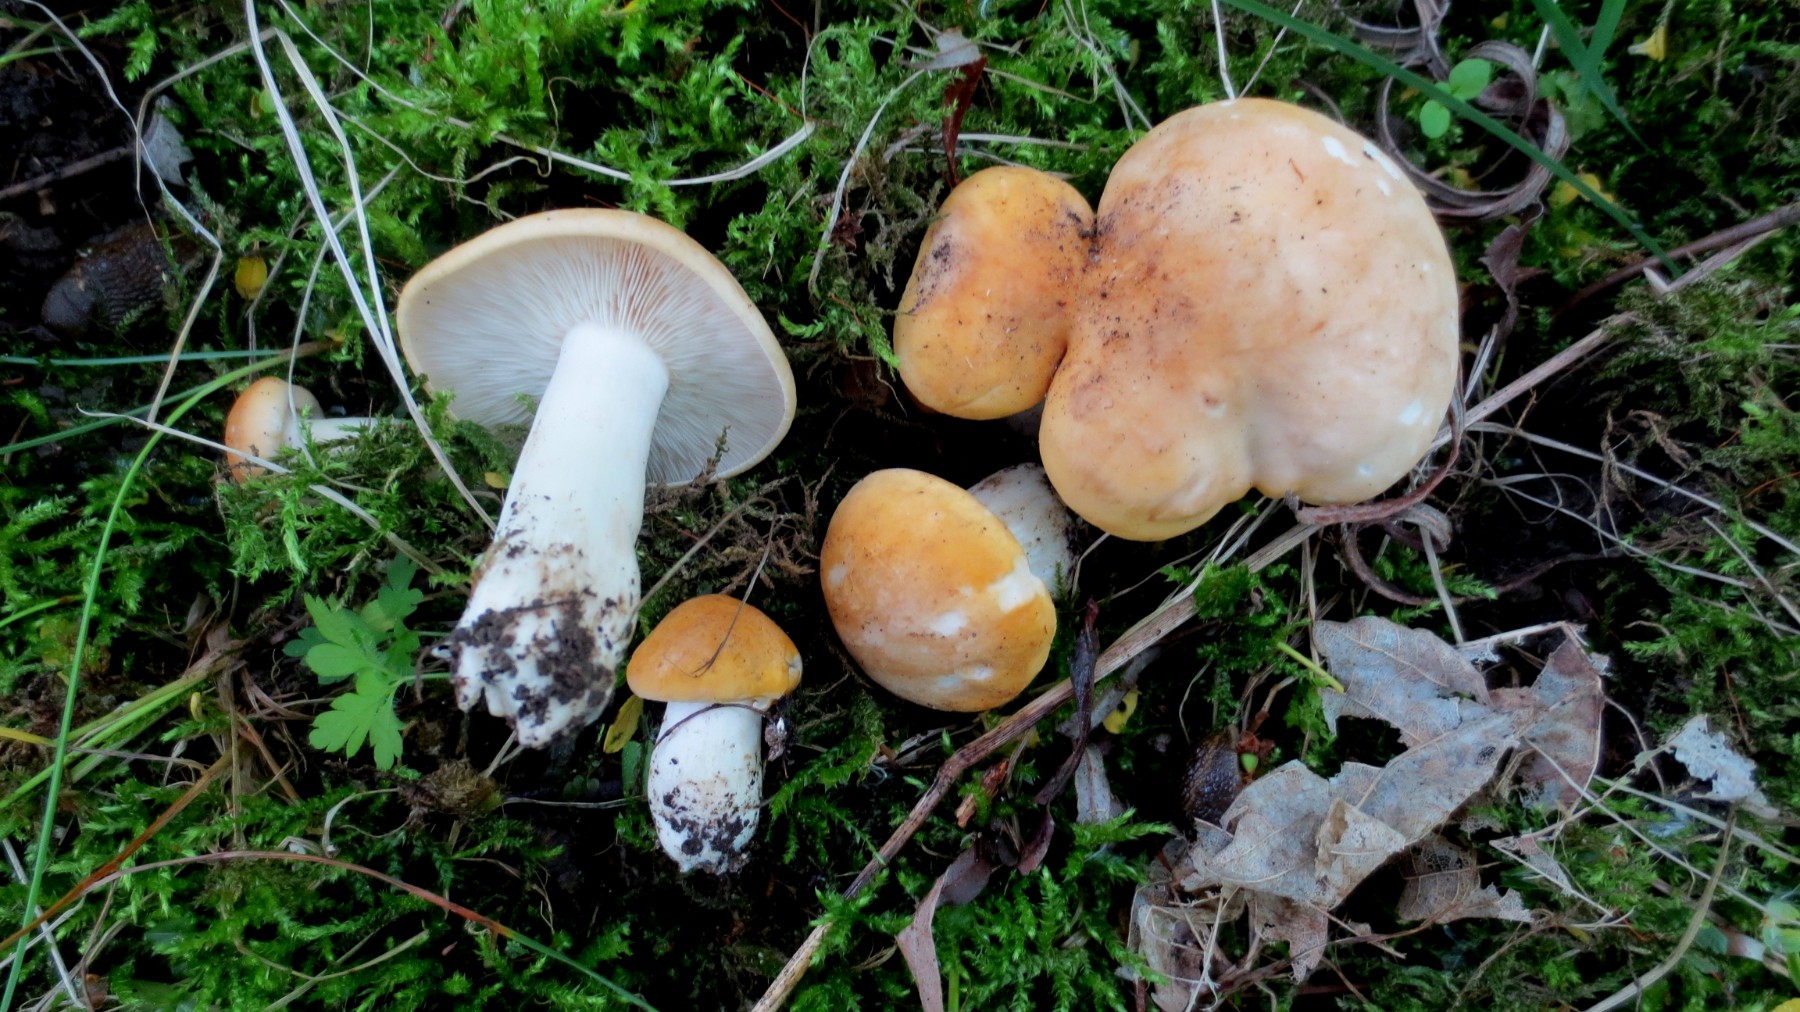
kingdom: Fungi
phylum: Basidiomycota
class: Agaricomycetes
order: Agaricales
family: Lyophyllaceae
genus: Calocybe
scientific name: Calocybe gambosa
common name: vårmusseron
